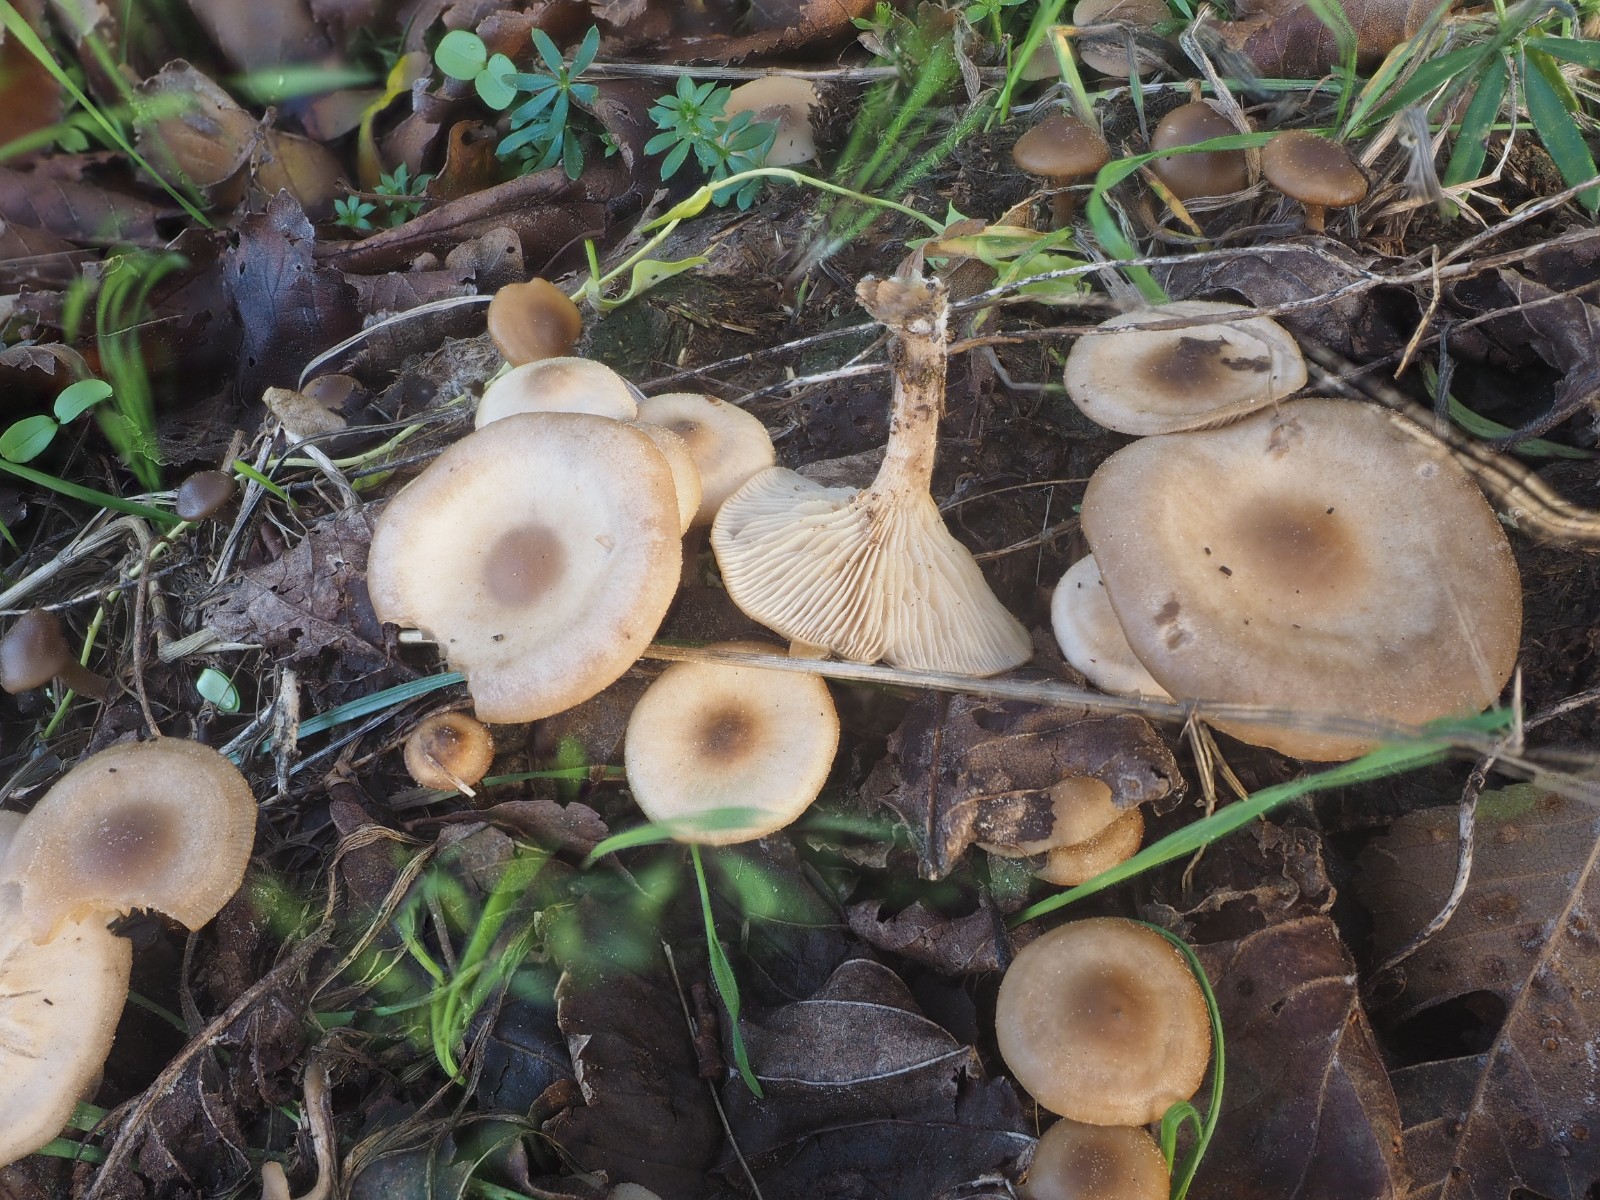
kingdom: Fungi
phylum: Basidiomycota
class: Agaricomycetes
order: Agaricales
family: Tricholomataceae
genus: Clitocybe
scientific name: Clitocybe amarescens
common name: gødnings-tragthat
